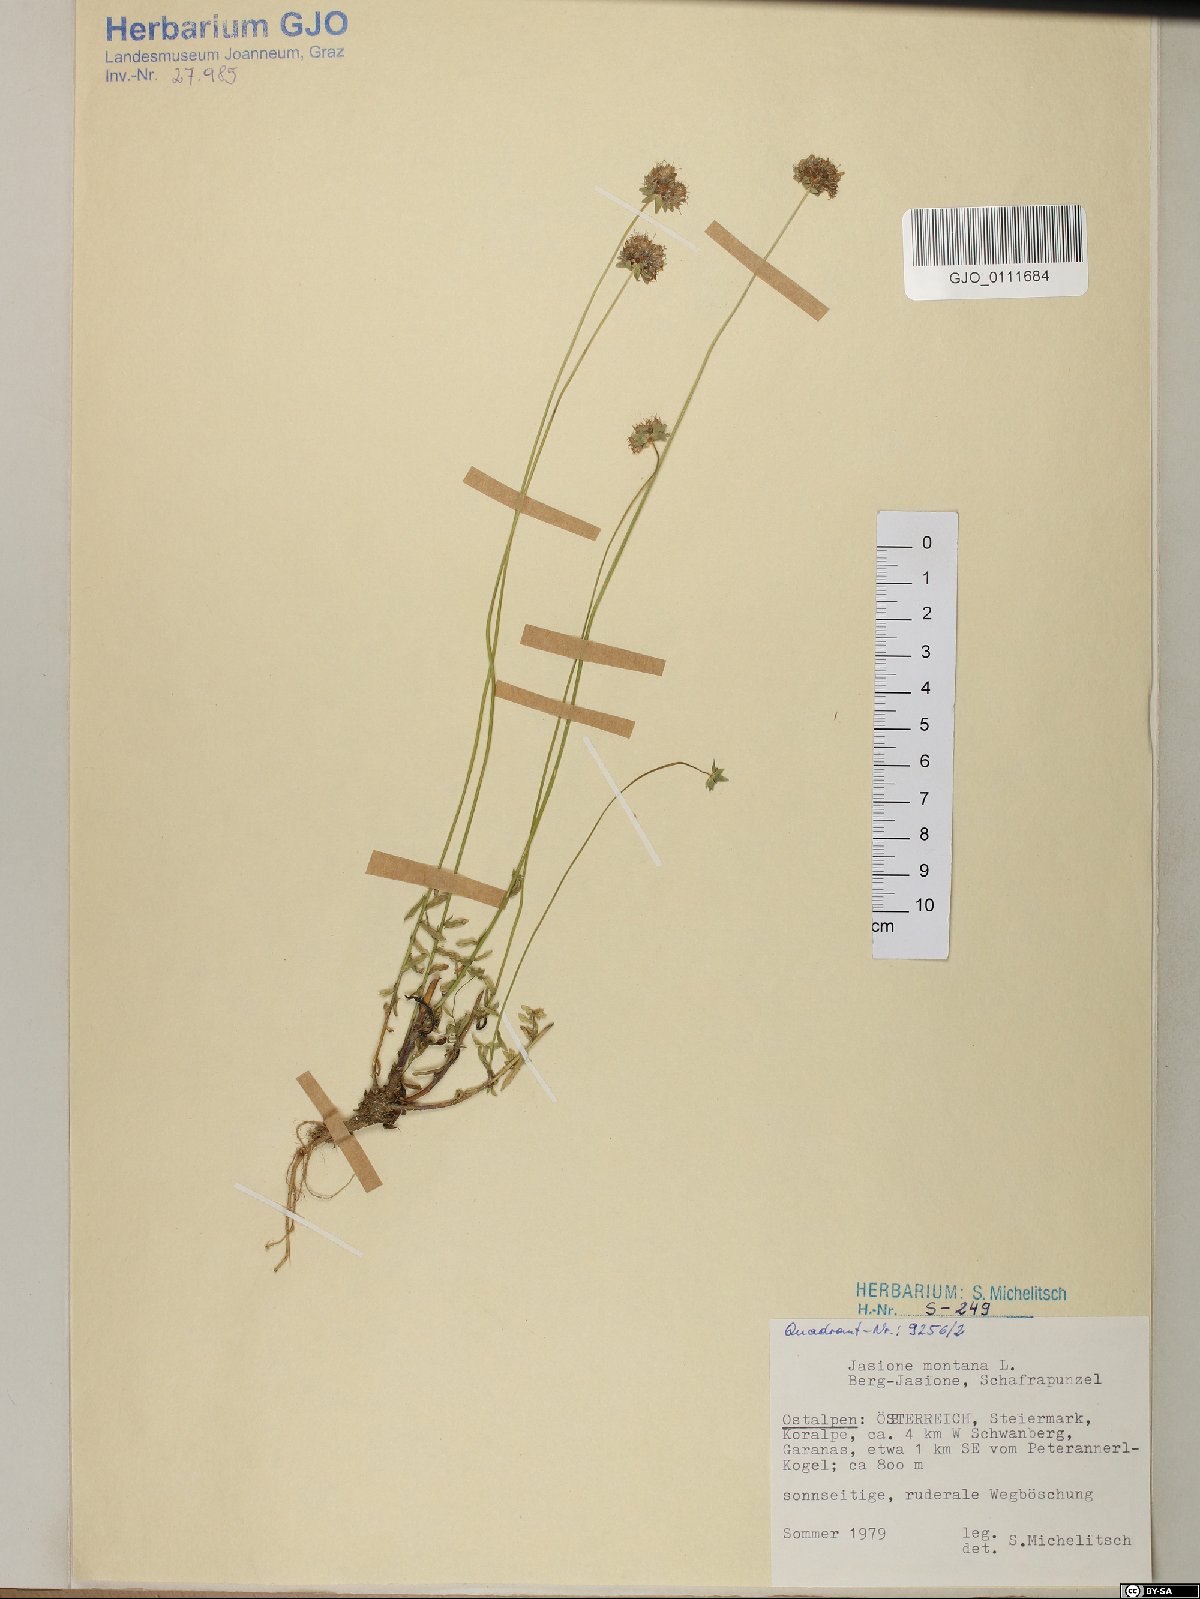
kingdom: Plantae
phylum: Tracheophyta
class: Magnoliopsida
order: Asterales
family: Campanulaceae
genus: Jasione
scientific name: Jasione montana
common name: Sheep's-bit
